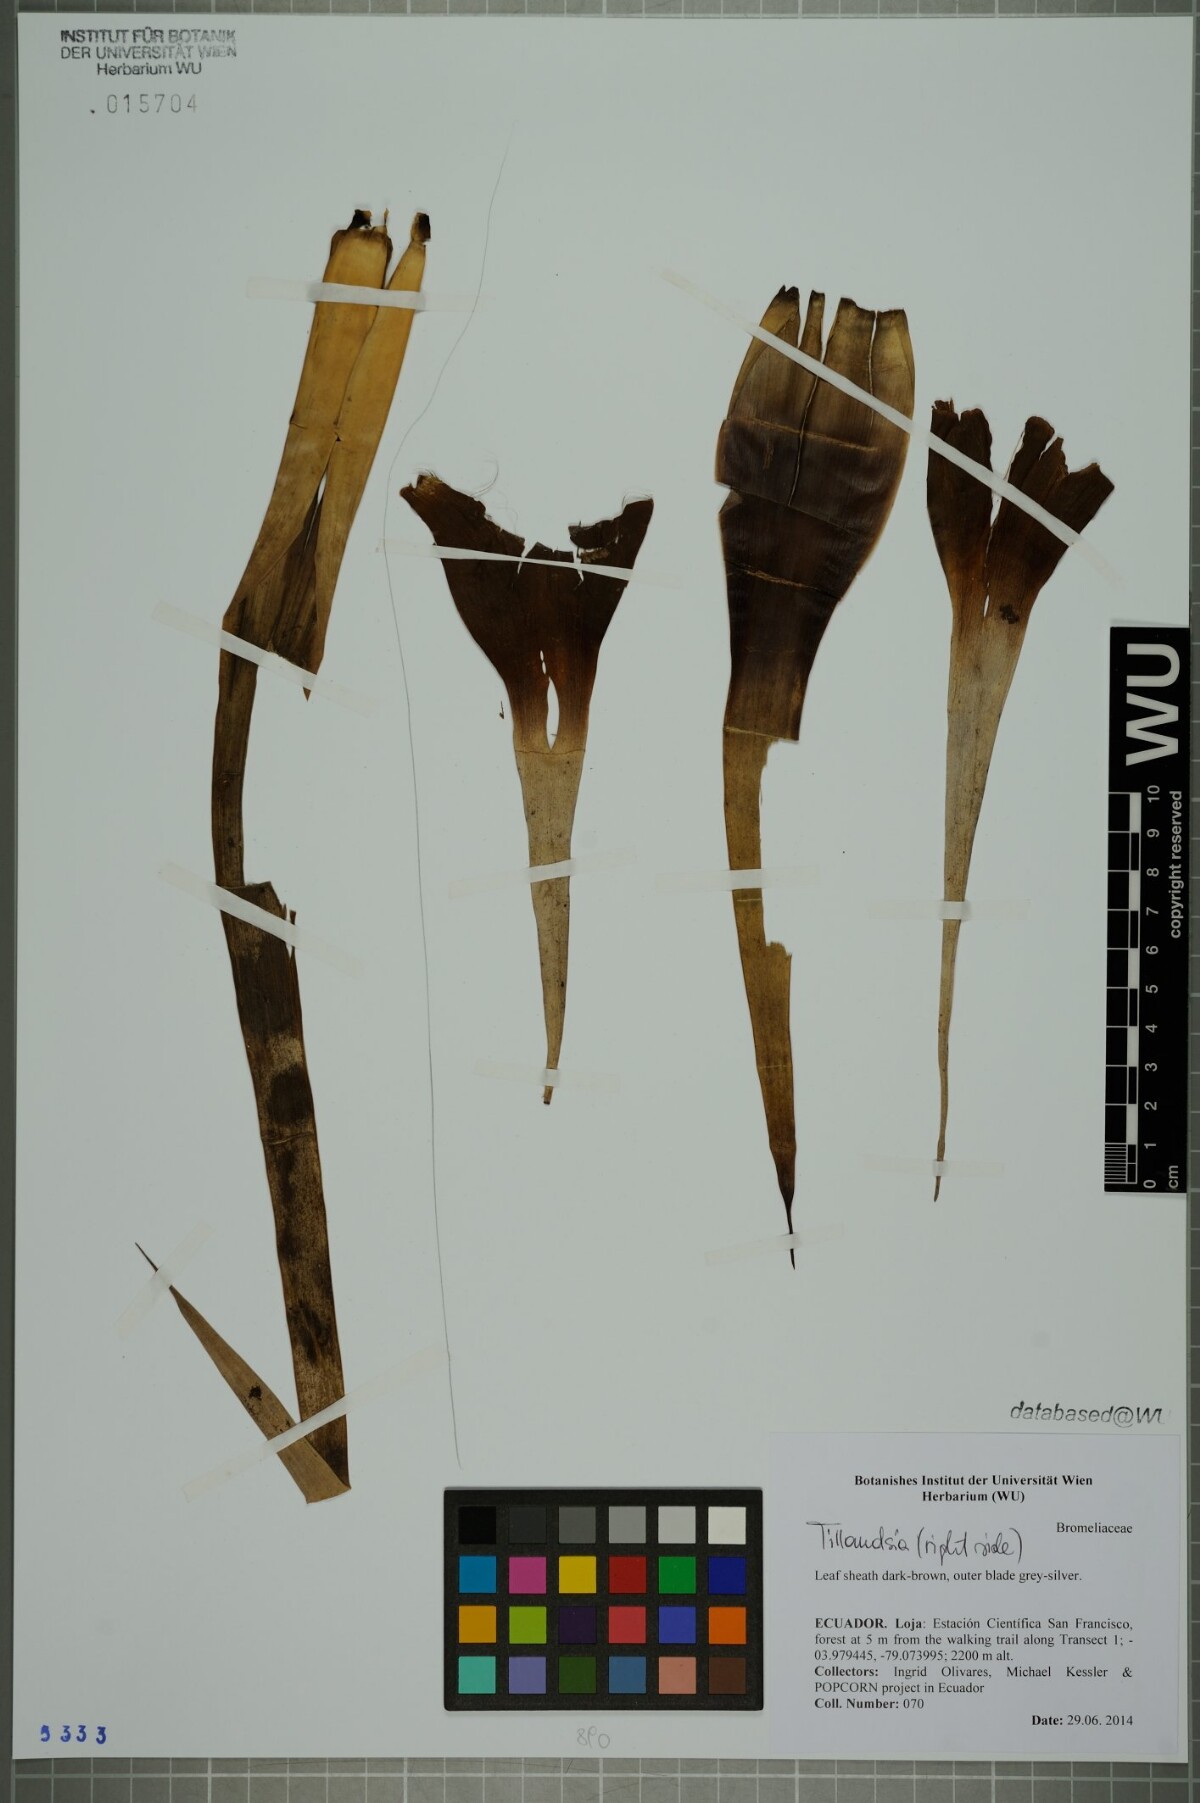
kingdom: Plantae
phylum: Tracheophyta
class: Liliopsida
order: Poales
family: Bromeliaceae
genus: Tillandsia
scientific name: Tillandsia
